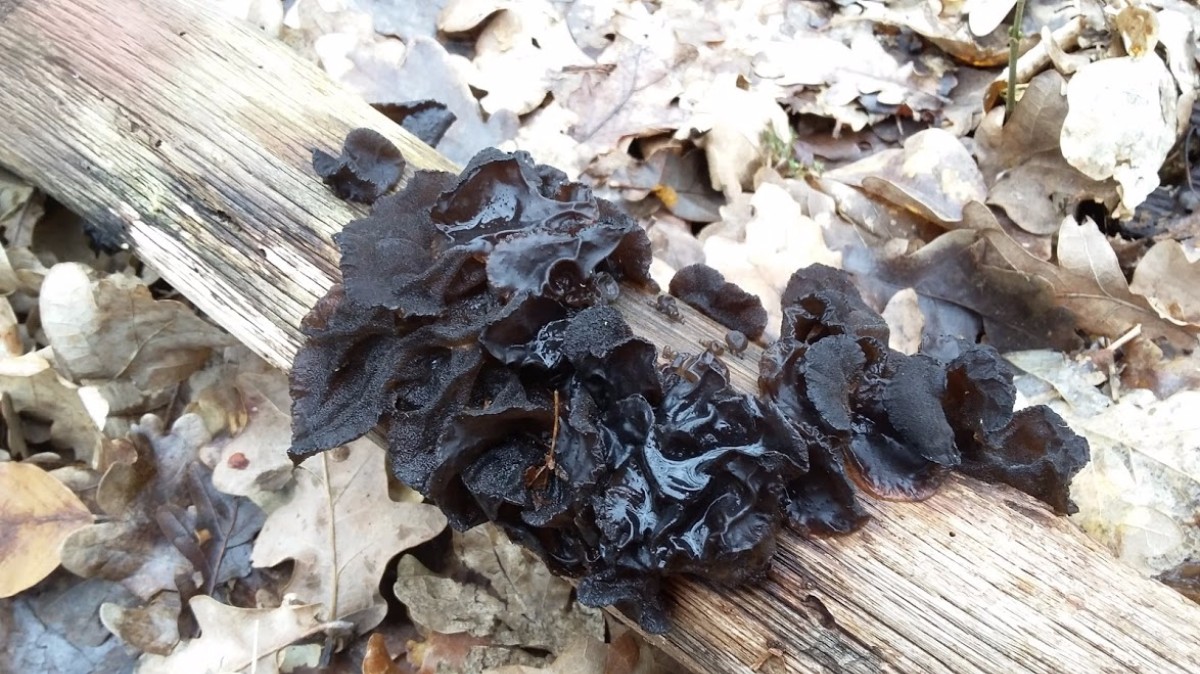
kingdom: Fungi
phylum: Basidiomycota
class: Agaricomycetes
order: Auriculariales
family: Auriculariaceae
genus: Exidia
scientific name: Exidia glandulosa
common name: ege-bævretop
